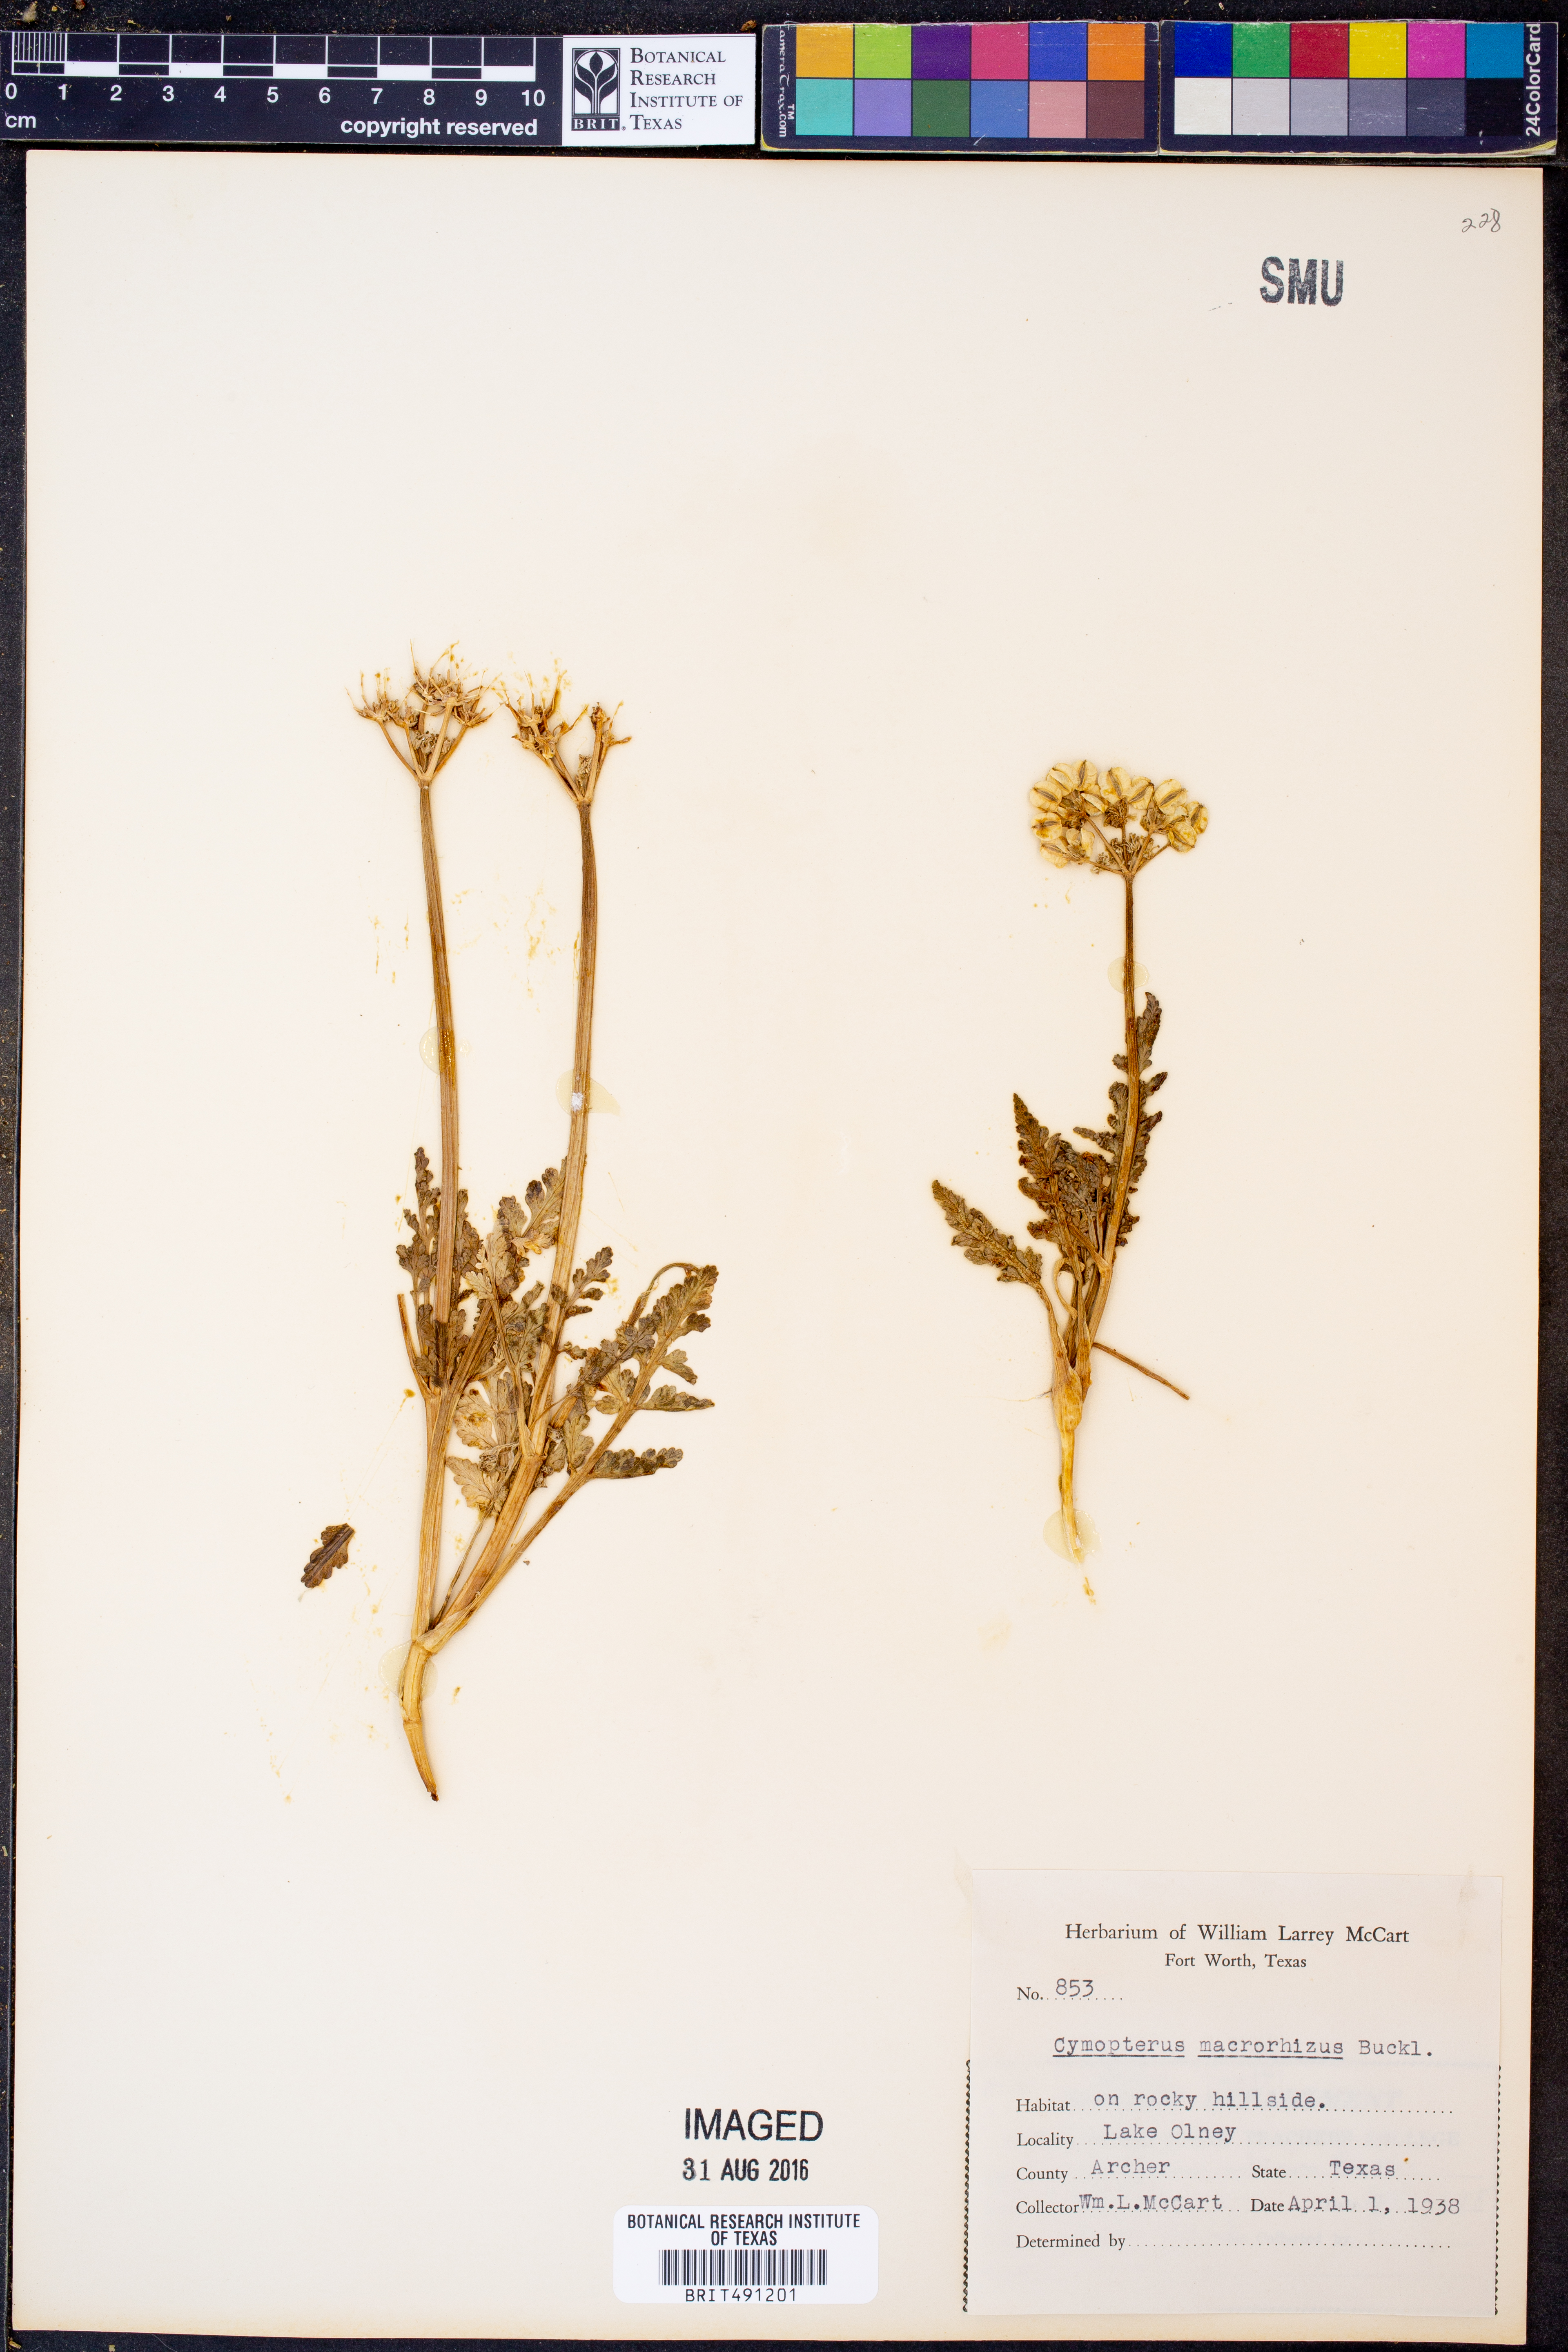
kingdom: Plantae
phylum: Tracheophyta
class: Magnoliopsida
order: Apiales
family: Apiaceae
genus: Vesper
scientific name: Vesper macrorhizus
